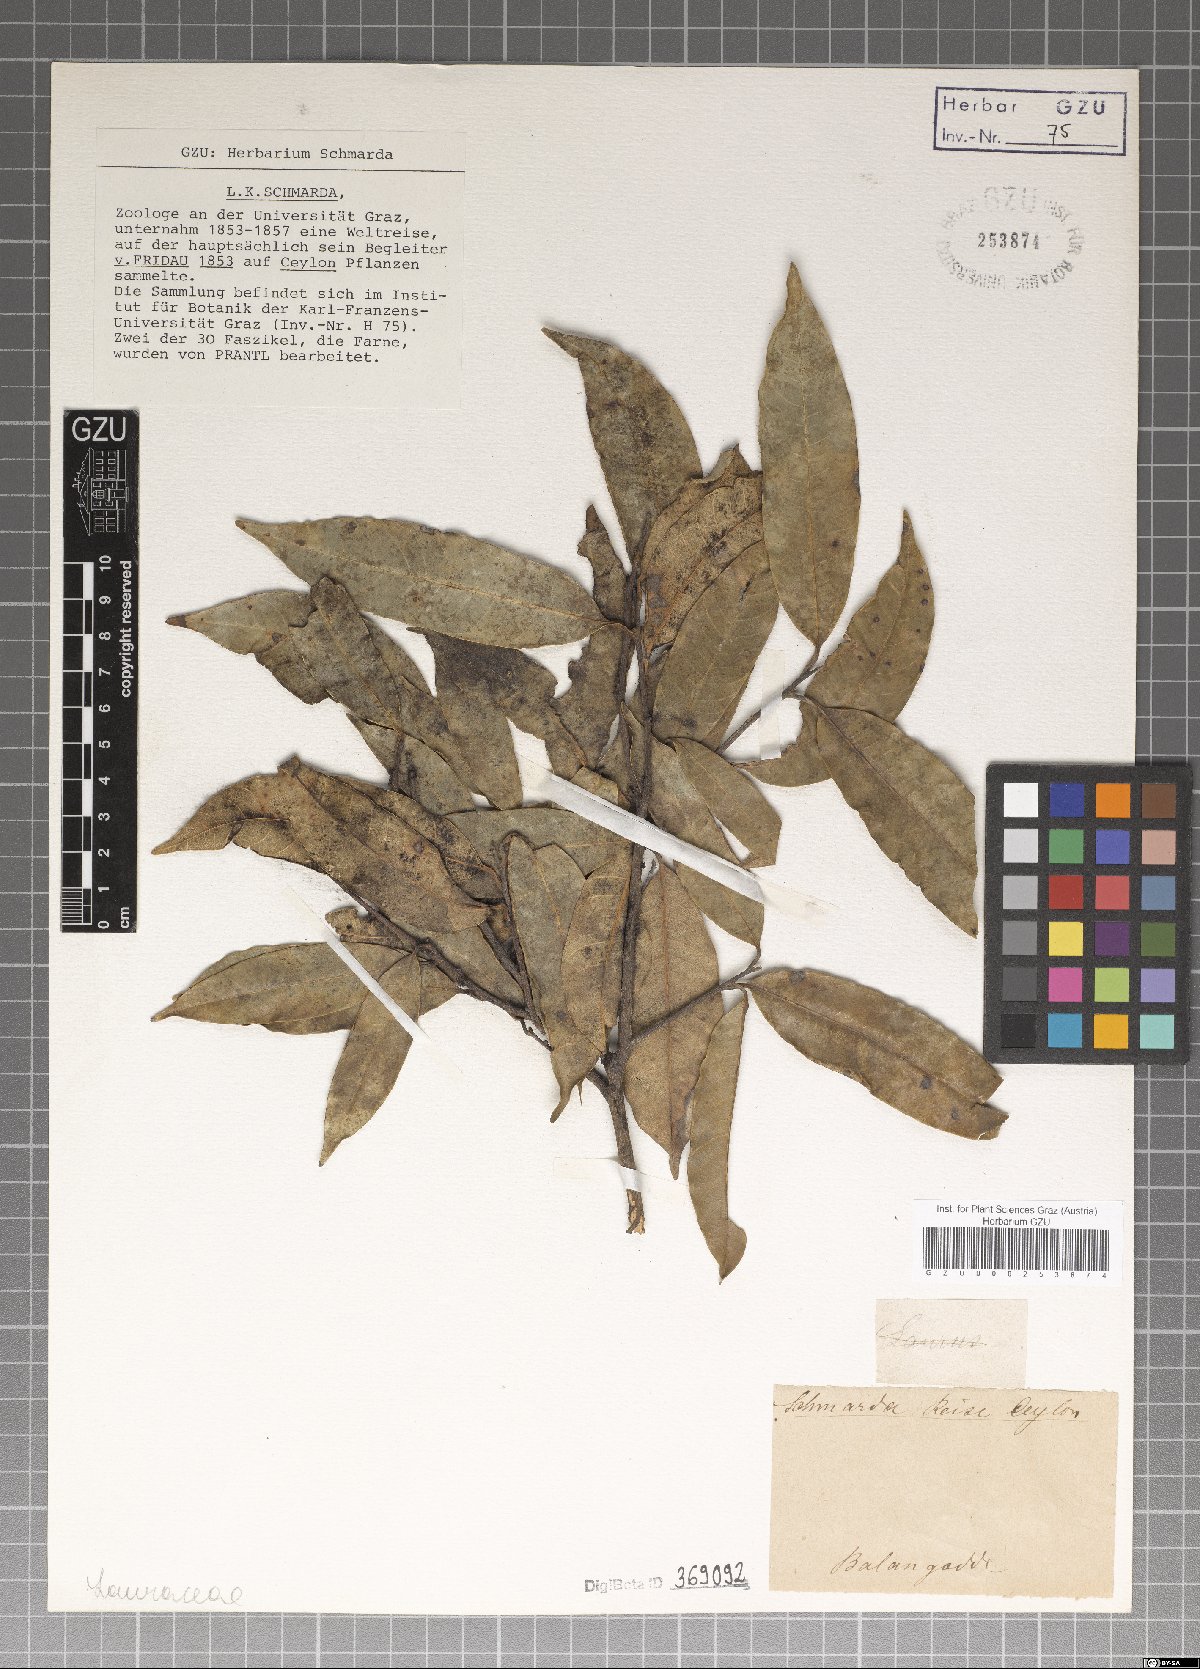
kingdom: Plantae
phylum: Tracheophyta
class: Magnoliopsida
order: Laurales
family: Lauraceae
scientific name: Lauraceae
